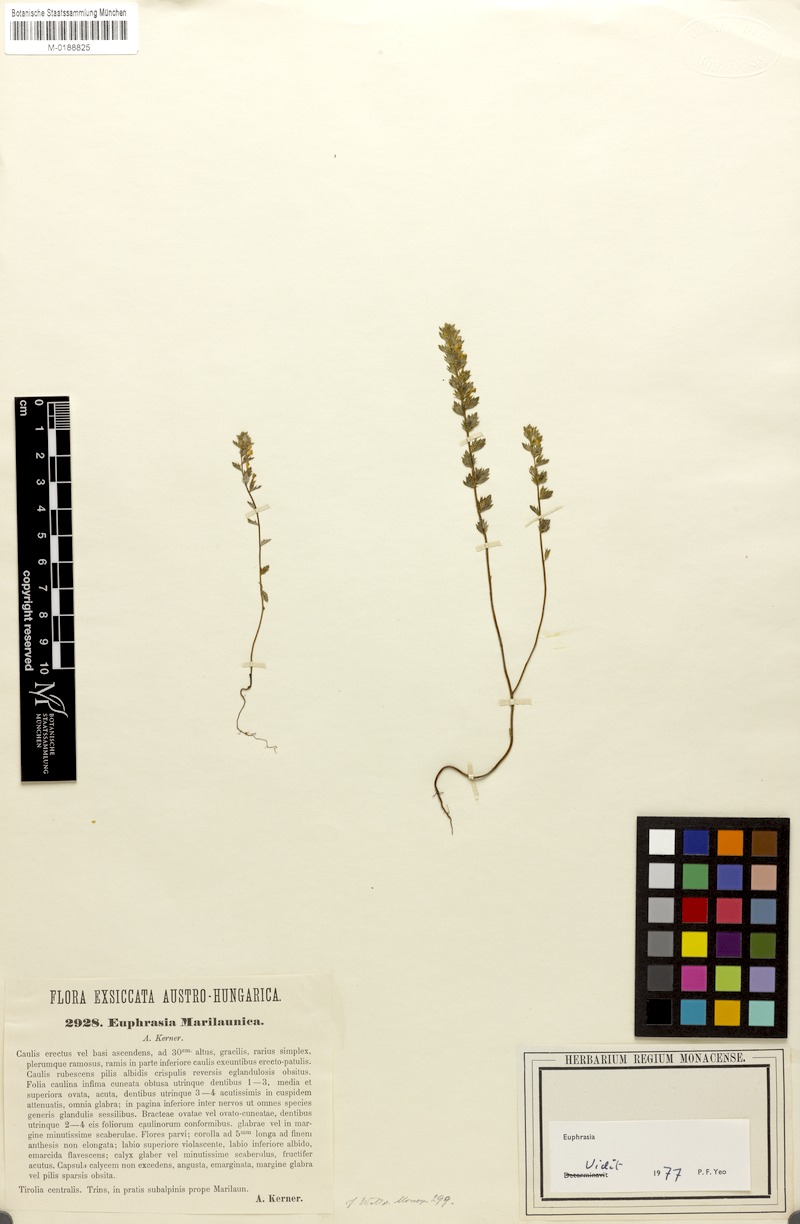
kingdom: Plantae
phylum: Tracheophyta
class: Magnoliopsida
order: Lamiales
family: Orobanchaceae
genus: Euphrasia
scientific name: Euphrasia salisburgensis
